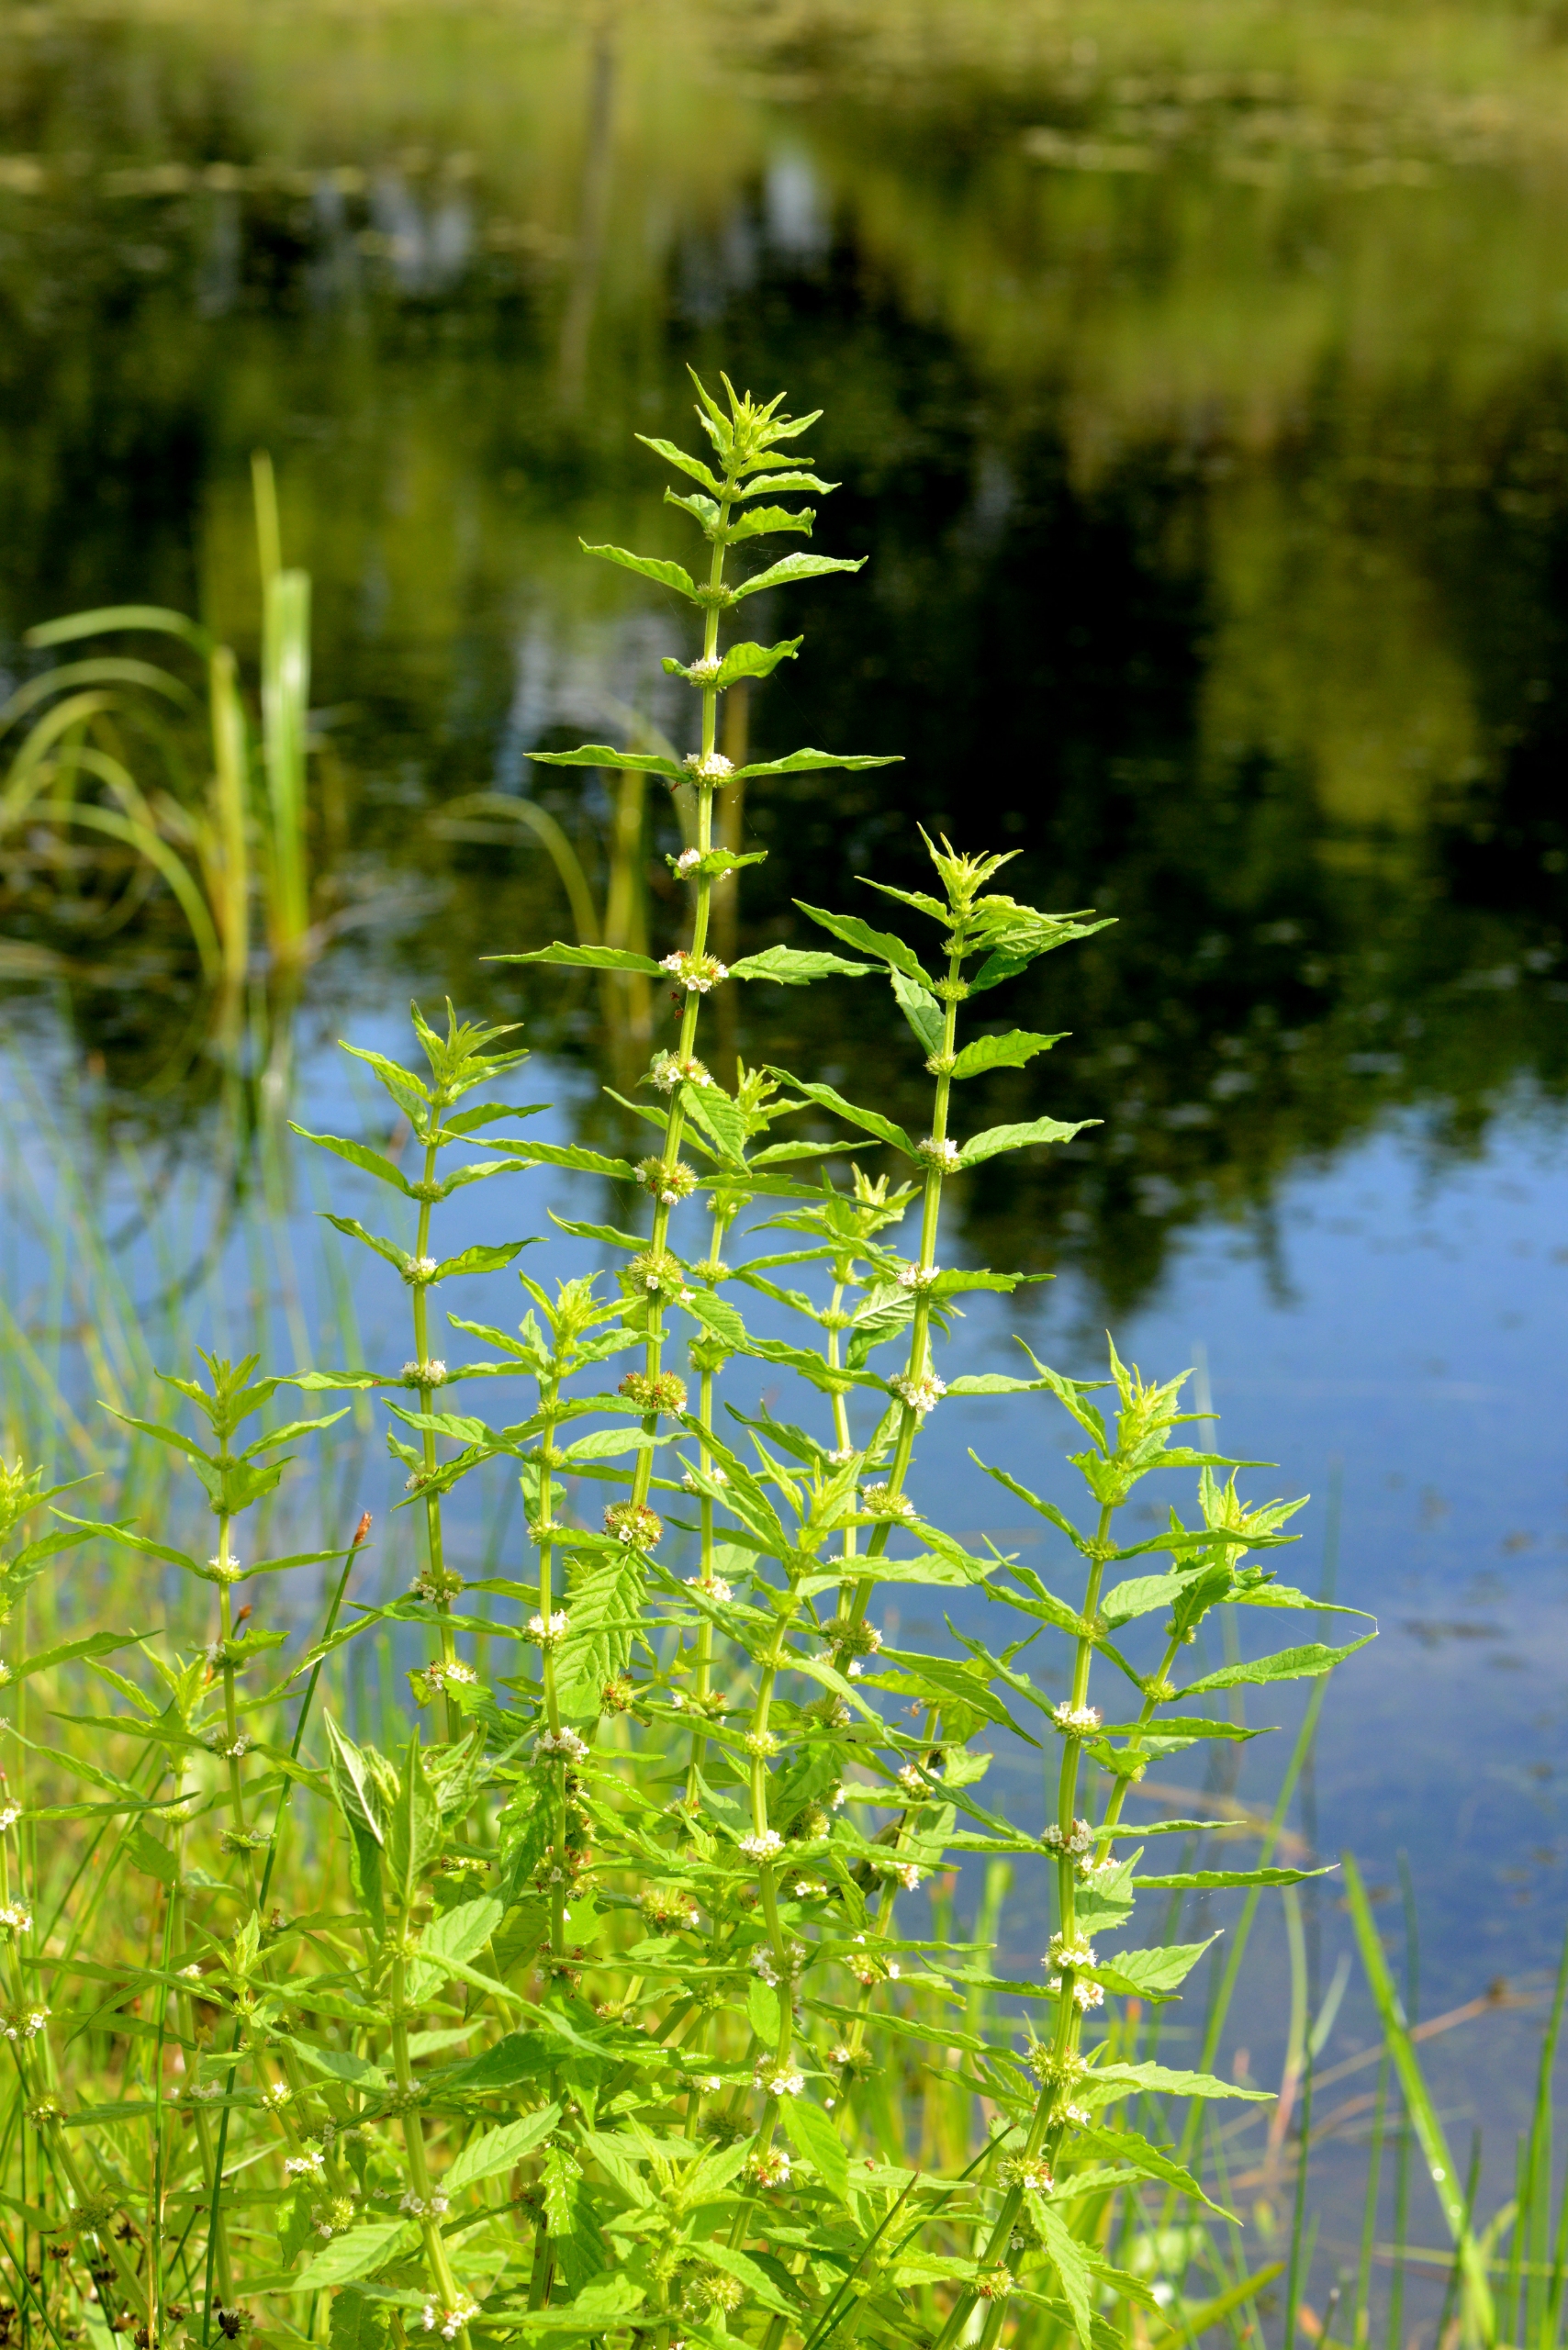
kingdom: Plantae
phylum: Tracheophyta
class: Magnoliopsida
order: Lamiales
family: Lamiaceae
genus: Lycopus
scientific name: Lycopus europaeus
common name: Sværtevæld
